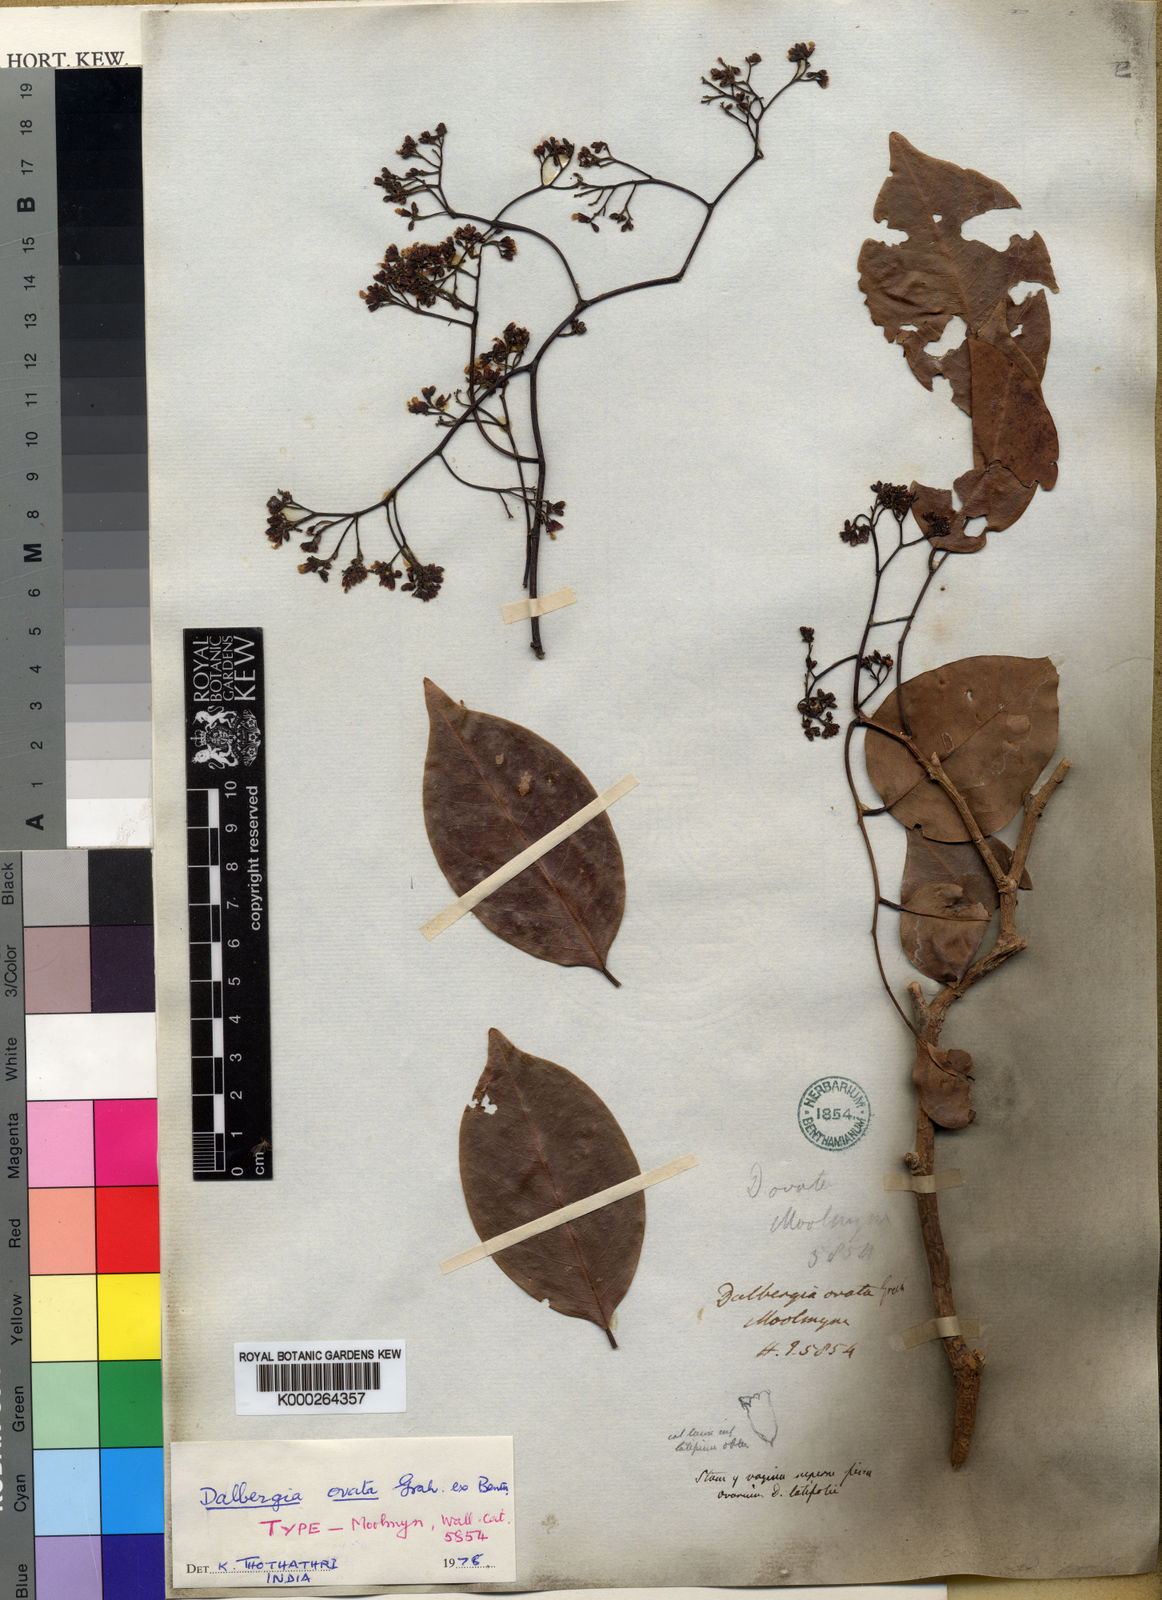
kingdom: Plantae
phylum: Tracheophyta
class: Magnoliopsida
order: Fabales
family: Fabaceae
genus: Dalbergia
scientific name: Dalbergia
